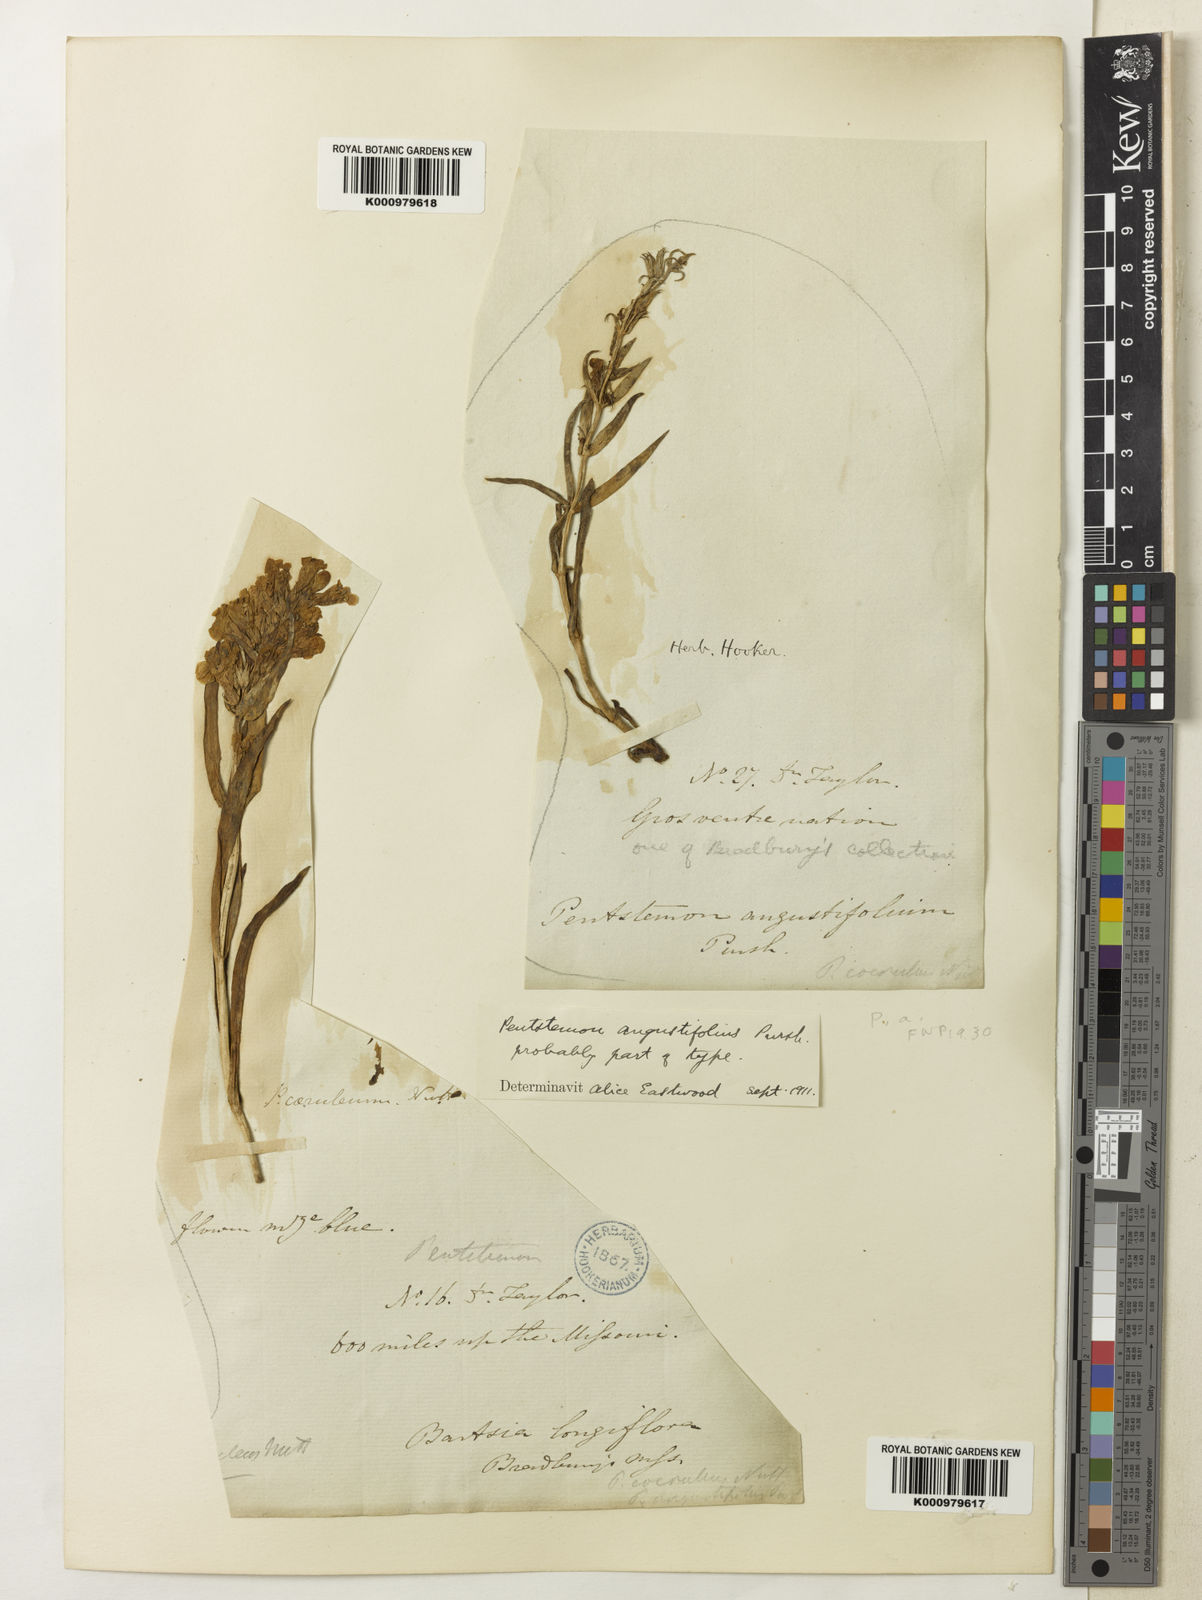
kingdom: Plantae
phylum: Tracheophyta
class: Magnoliopsida
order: Lamiales
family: Plantaginaceae
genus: Penstemon
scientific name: Penstemon angustifolius
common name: Narrow beardtongue
